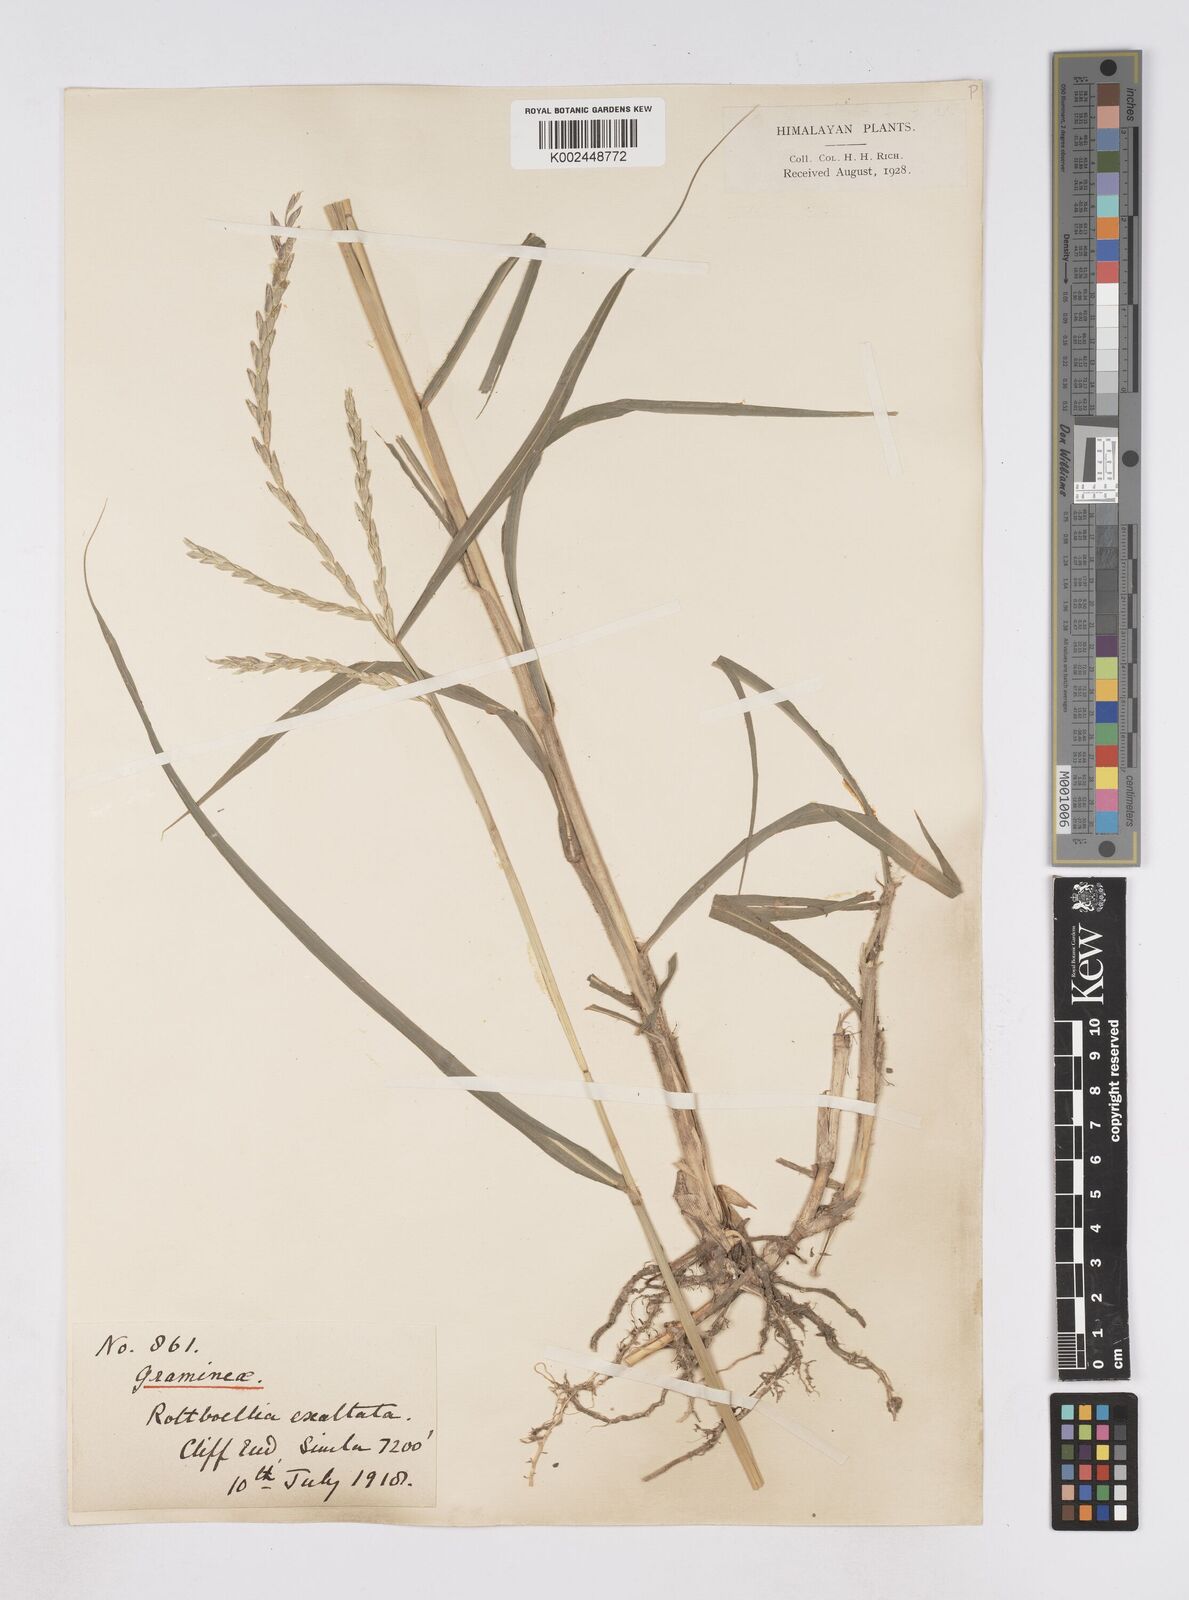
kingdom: Plantae
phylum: Tracheophyta
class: Liliopsida
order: Poales
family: Poaceae
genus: Phacelurus
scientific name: Phacelurus speciosus
